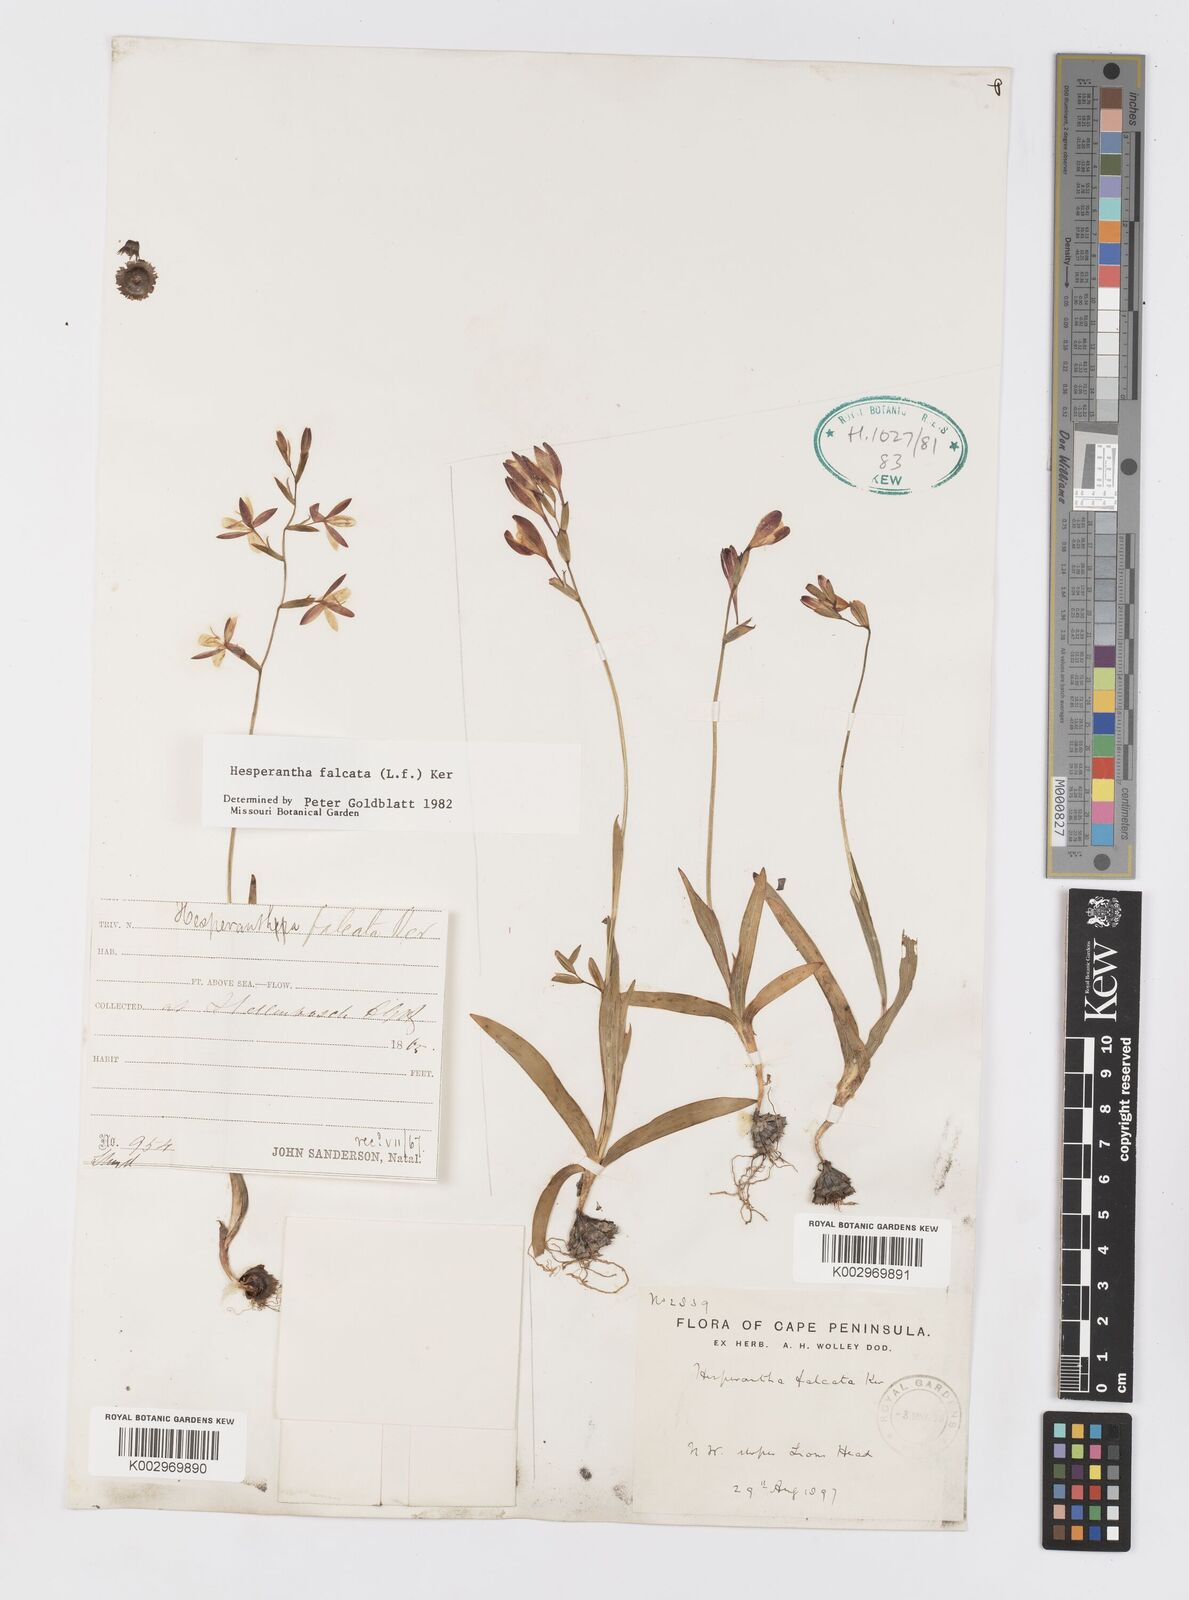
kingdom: Plantae
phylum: Tracheophyta
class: Liliopsida
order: Asparagales
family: Iridaceae
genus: Hesperantha
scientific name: Hesperantha falcata
